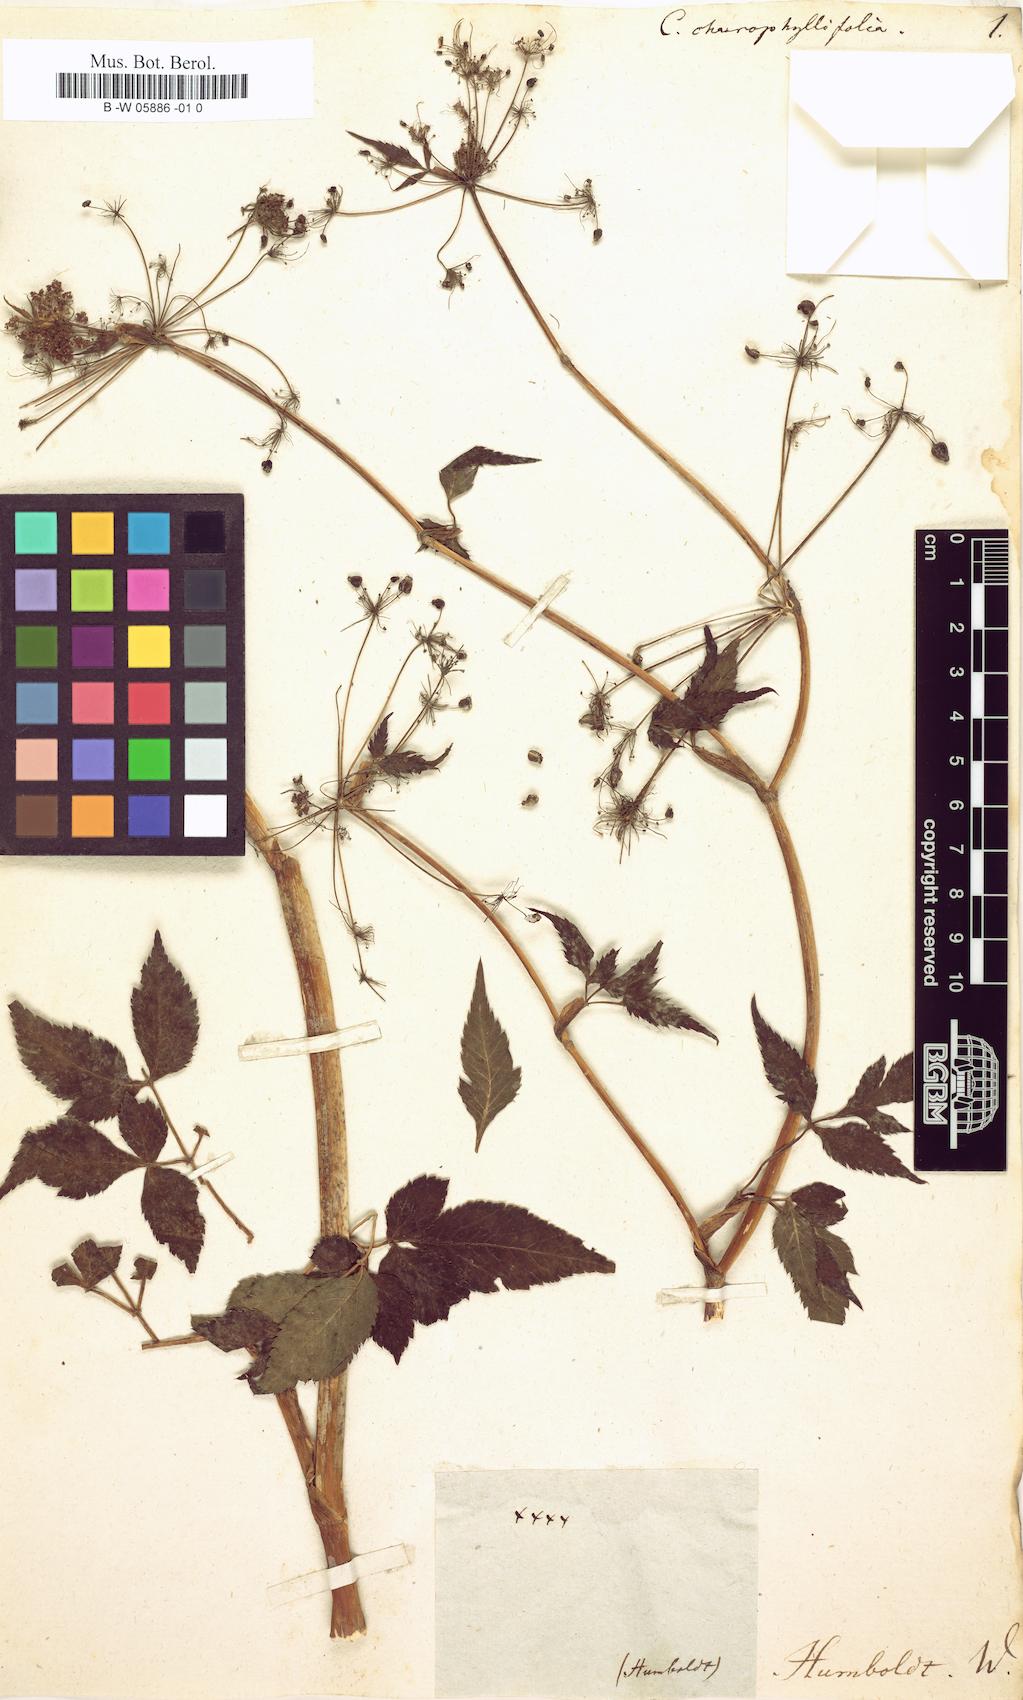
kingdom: Plantae
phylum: Tracheophyta
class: Magnoliopsida
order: Apiales
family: Apiaceae
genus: Cicuta
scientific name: Cicuta
